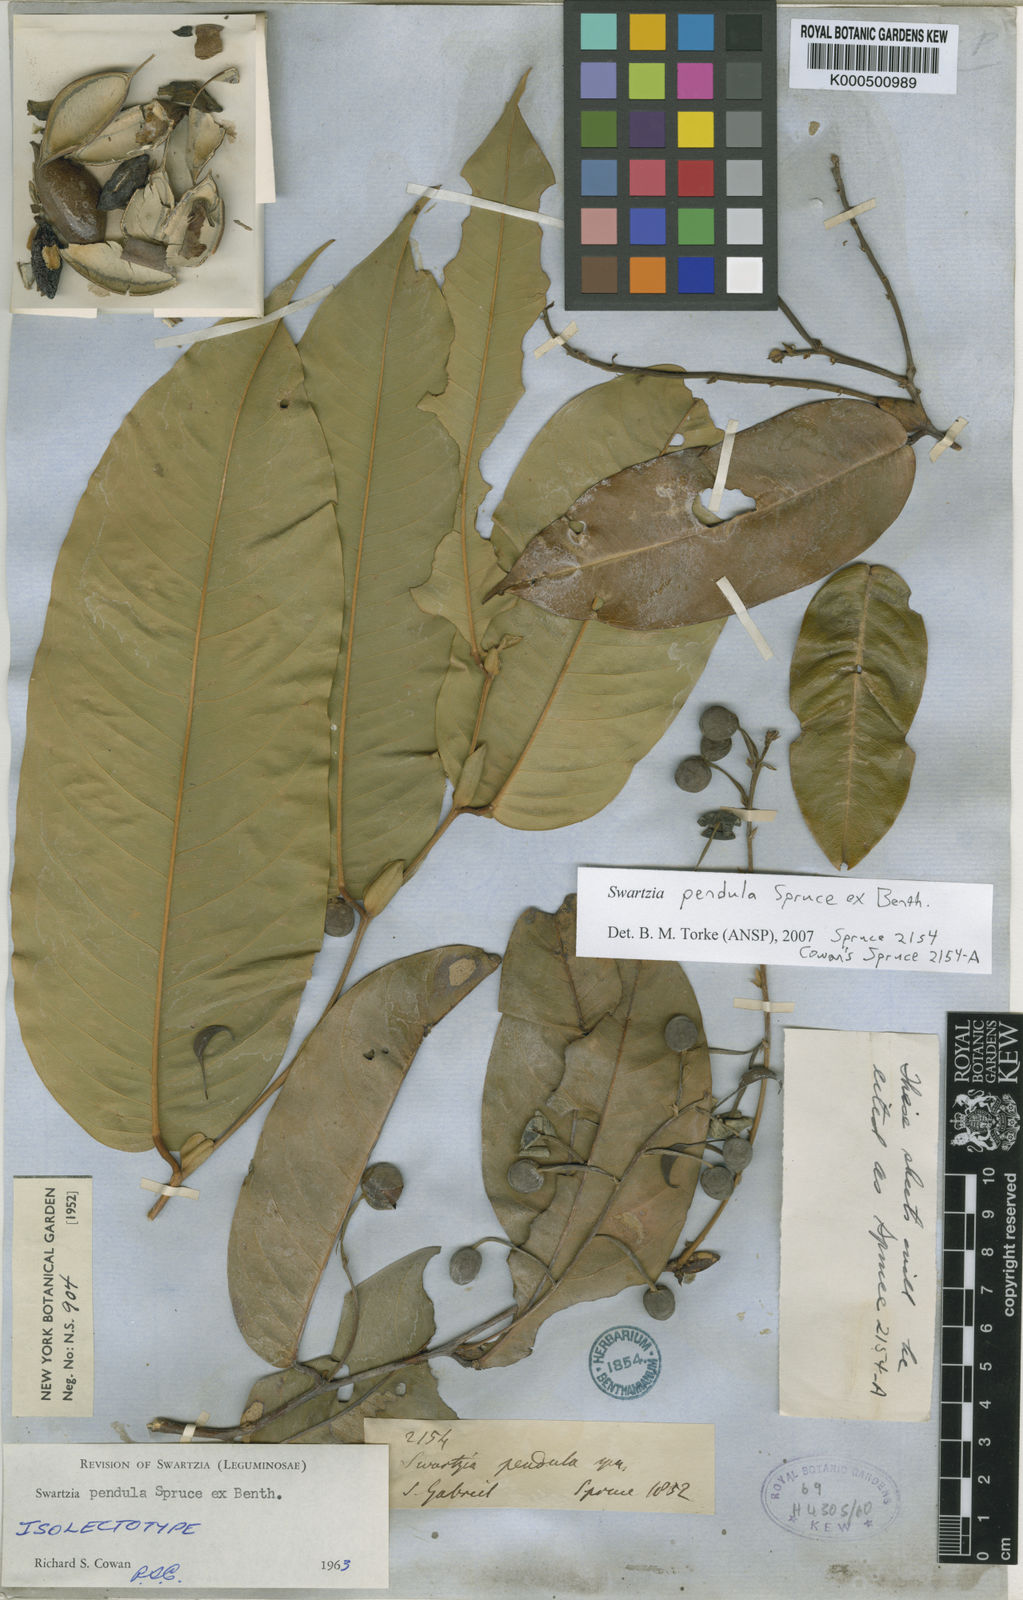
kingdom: Plantae
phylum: Tracheophyta
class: Magnoliopsida
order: Fabales
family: Fabaceae
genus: Swartzia
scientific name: Swartzia pendula
